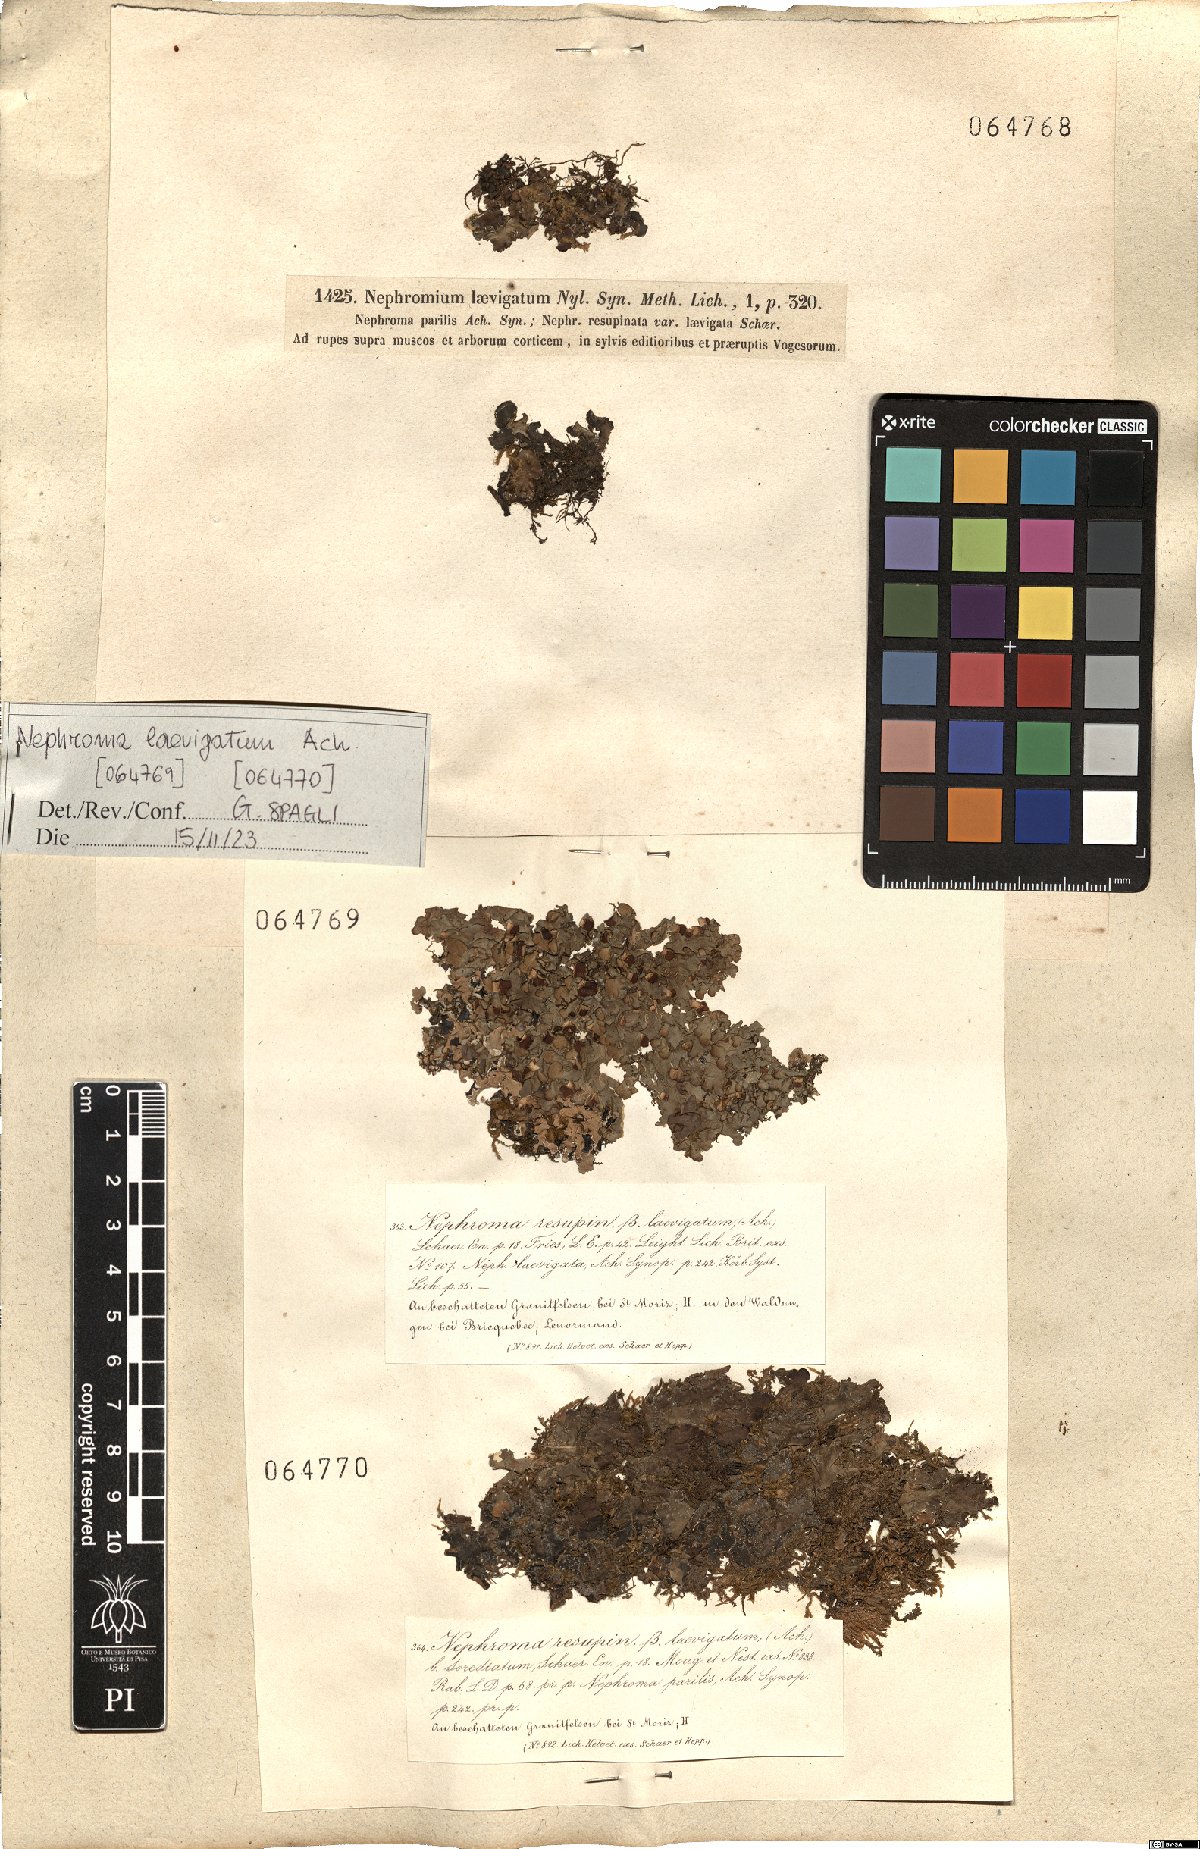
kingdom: Fungi
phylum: Ascomycota
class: Lecanoromycetes
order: Peltigerales
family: Nephromataceae
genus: Nephroma
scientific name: Nephroma laevigatum
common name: Mustard kidney lichen
